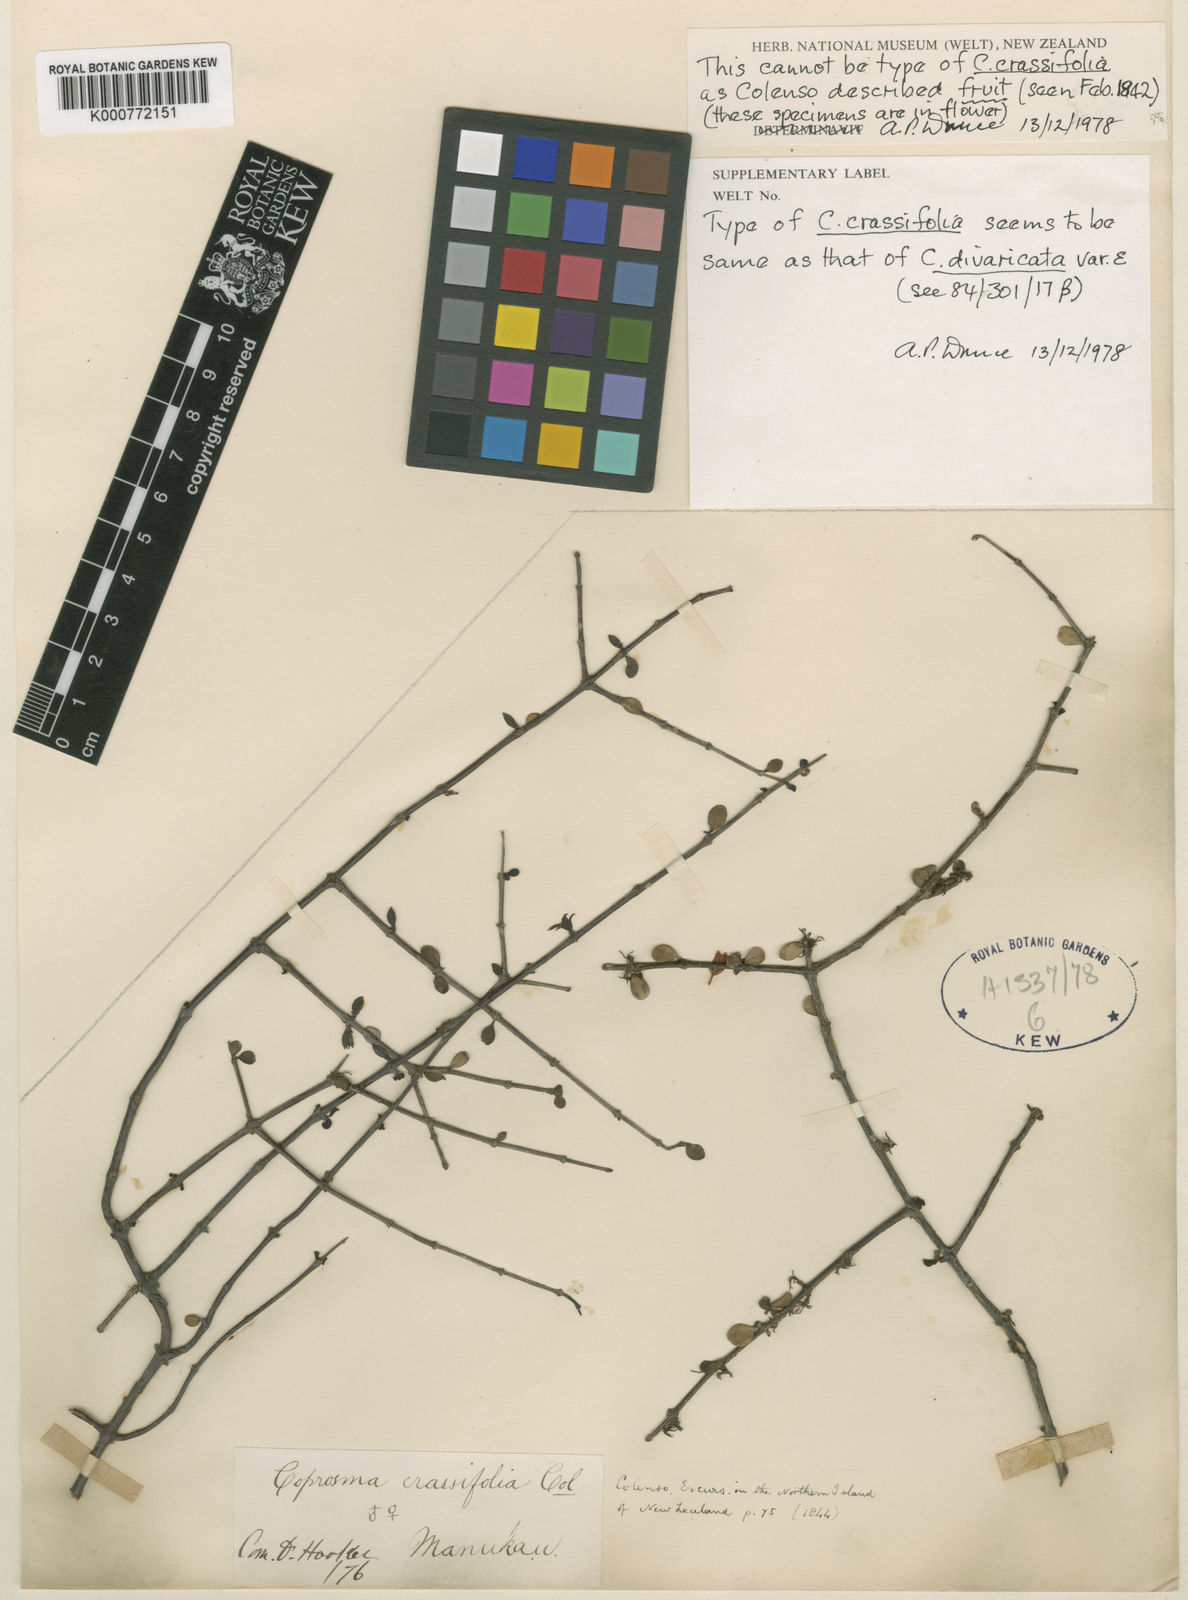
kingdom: Plantae
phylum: Tracheophyta
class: Magnoliopsida
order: Gentianales
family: Rubiaceae
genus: Coprosma
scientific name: Coprosma crassifolia
